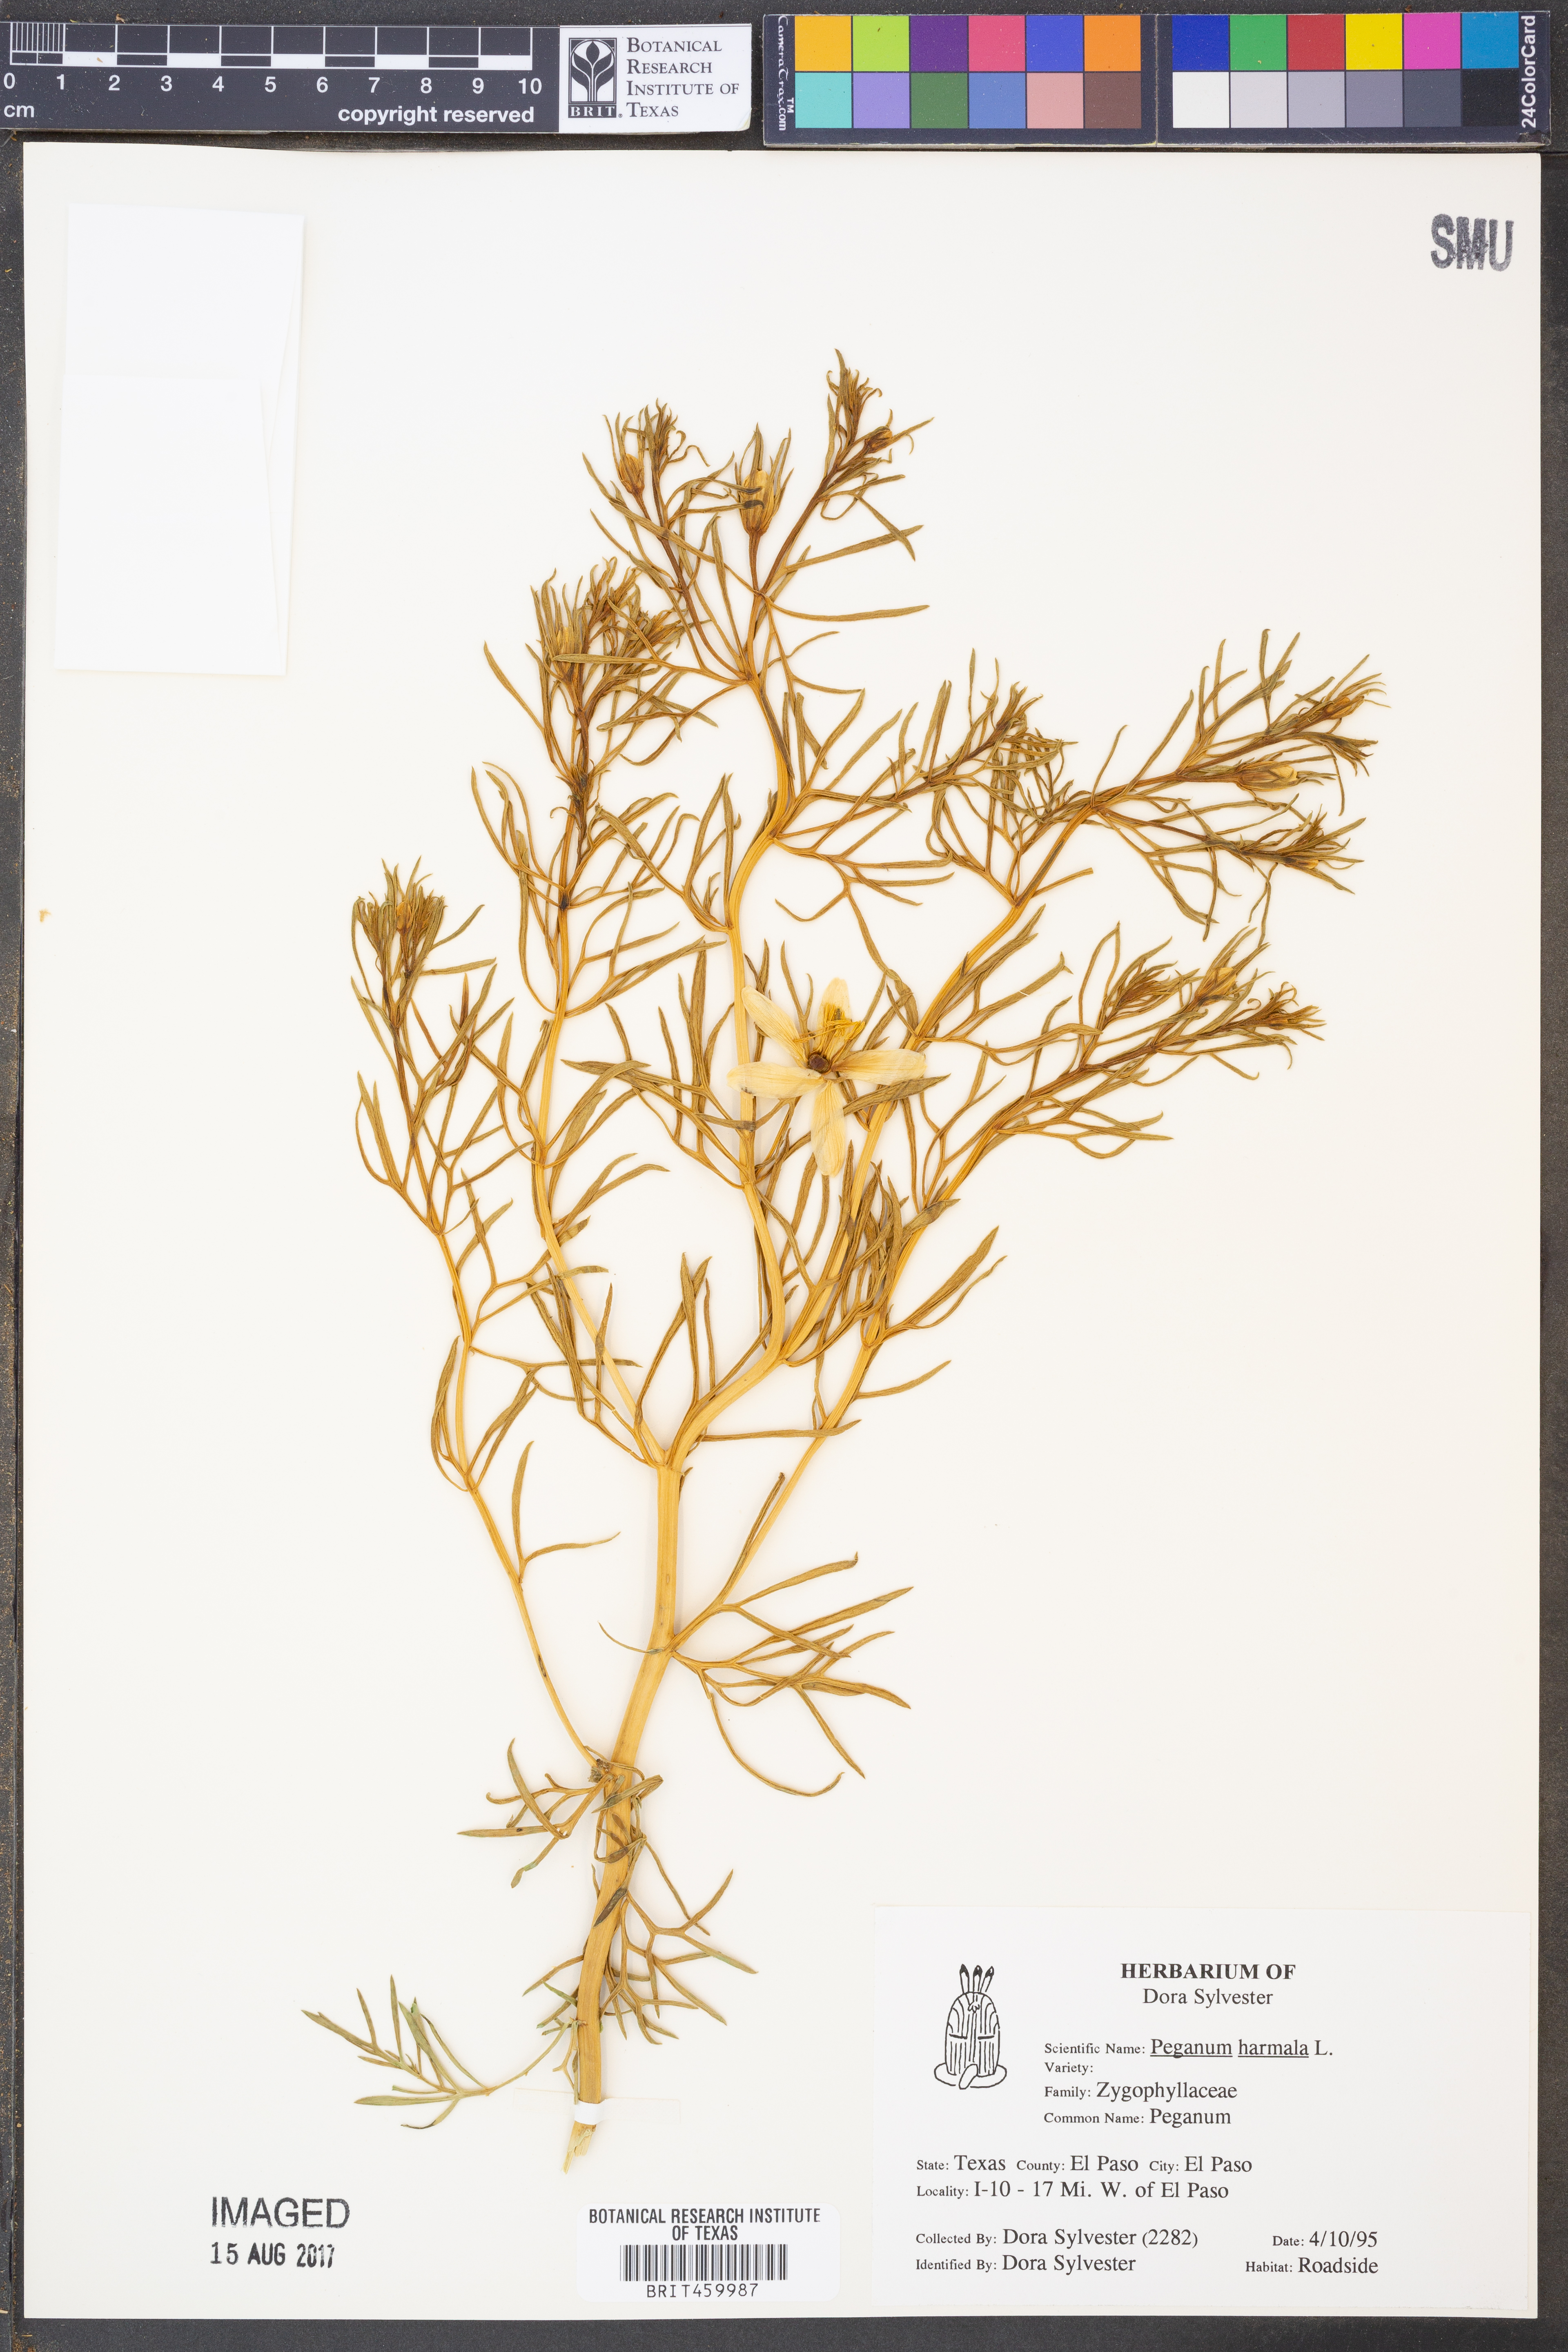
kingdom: Plantae
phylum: Tracheophyta
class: Magnoliopsida
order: Sapindales
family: Tetradiclidaceae
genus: Peganum
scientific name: Peganum harmala
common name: Harmal peganum
